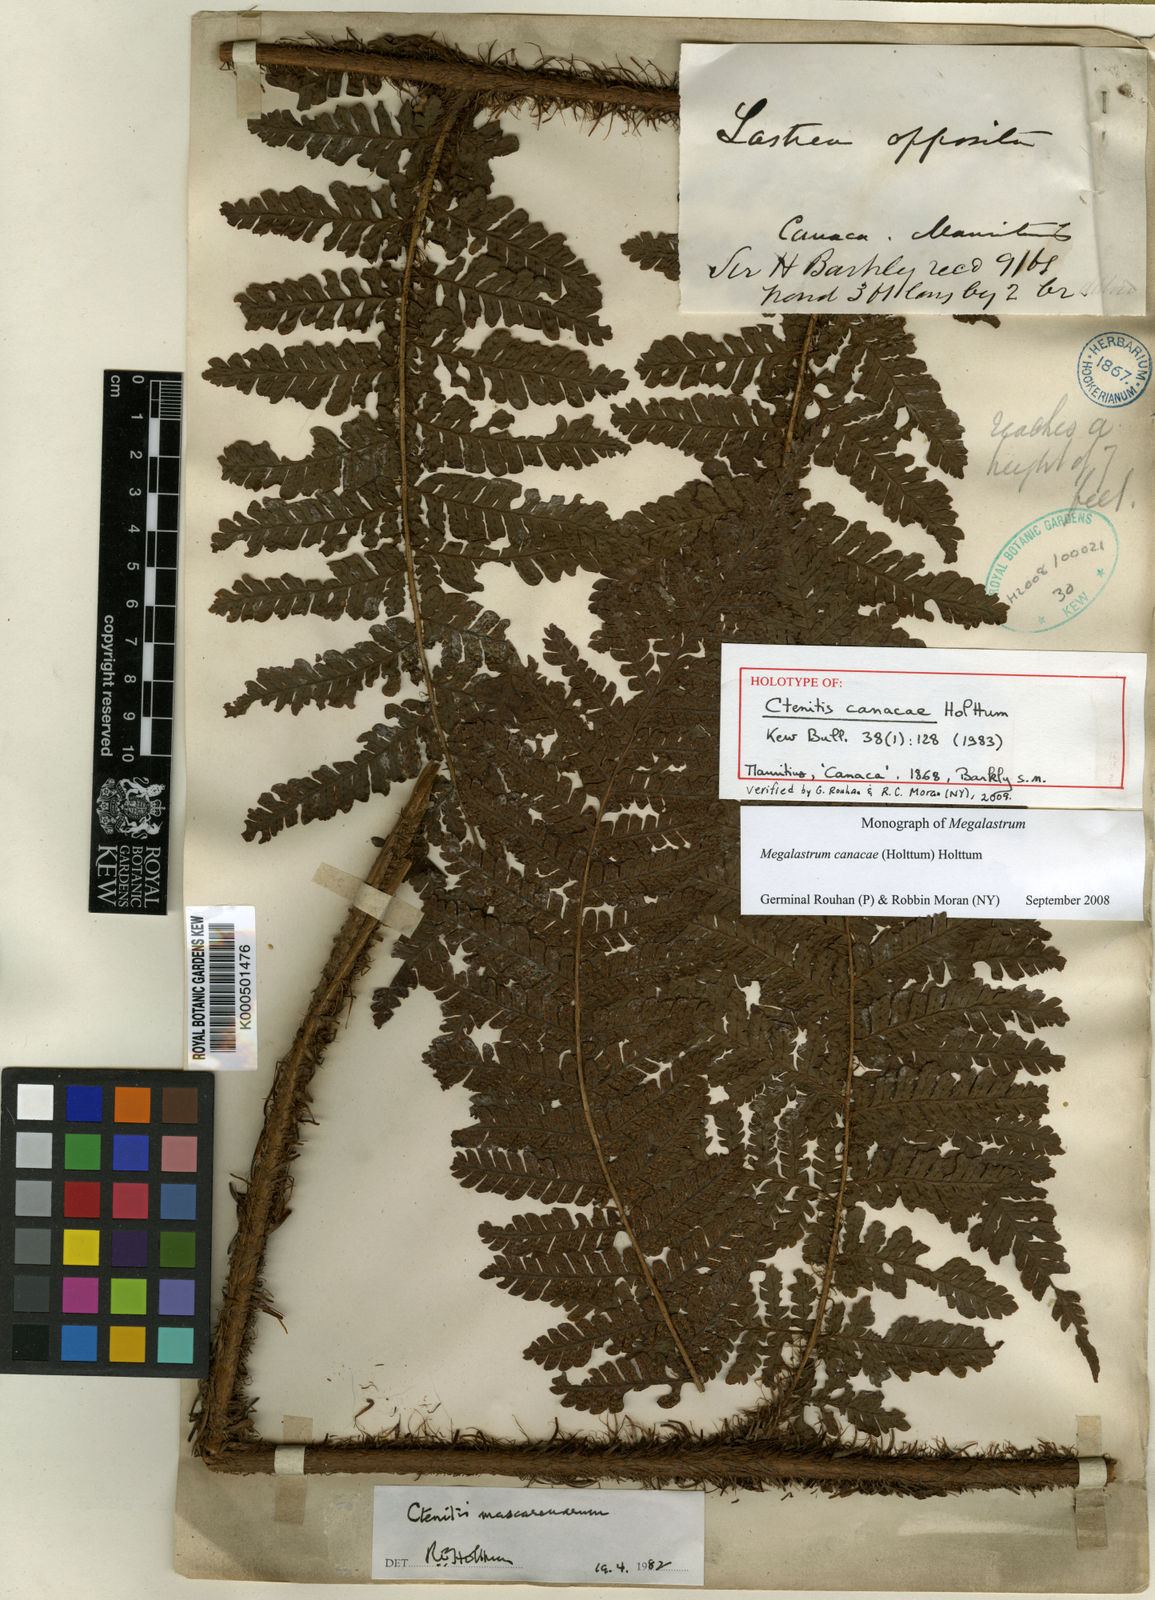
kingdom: Plantae
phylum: Tracheophyta
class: Polypodiopsida
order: Polypodiales
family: Dryopteridaceae
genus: Megalastrum
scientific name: Megalastrum oppositum
